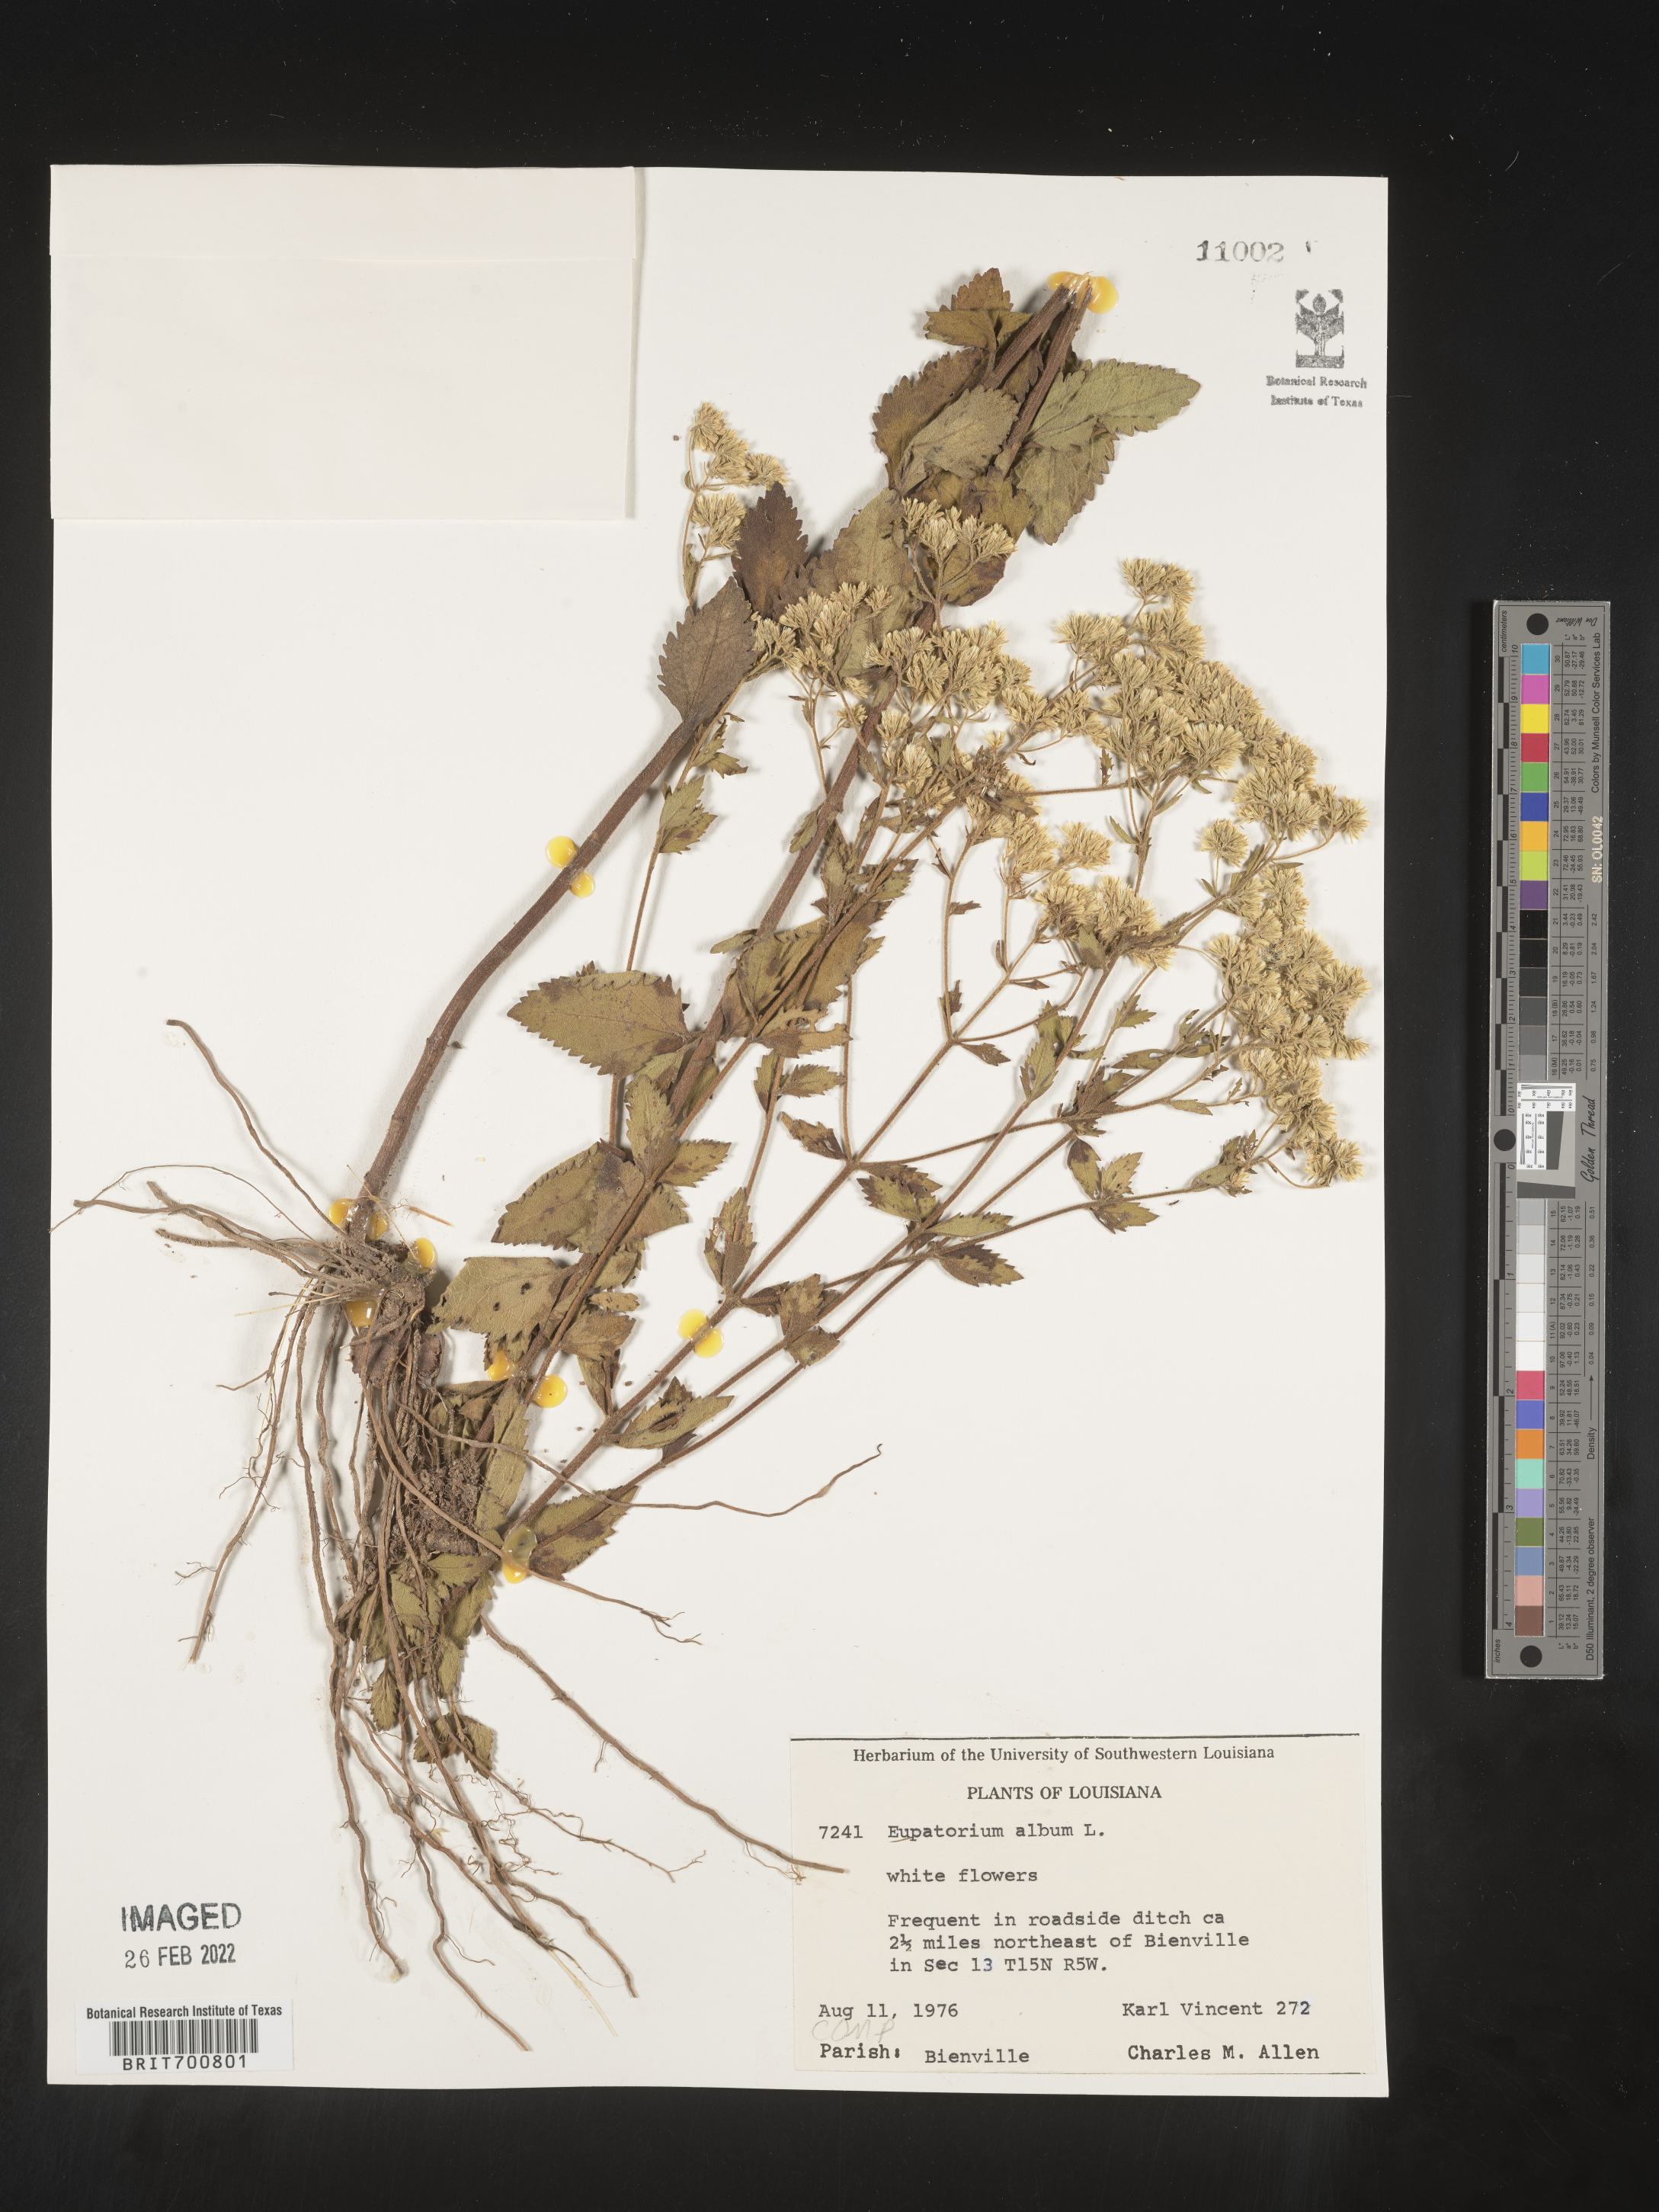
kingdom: Plantae
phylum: Tracheophyta
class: Magnoliopsida
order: Asterales
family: Asteraceae
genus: Eupatorium
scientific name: Eupatorium album
